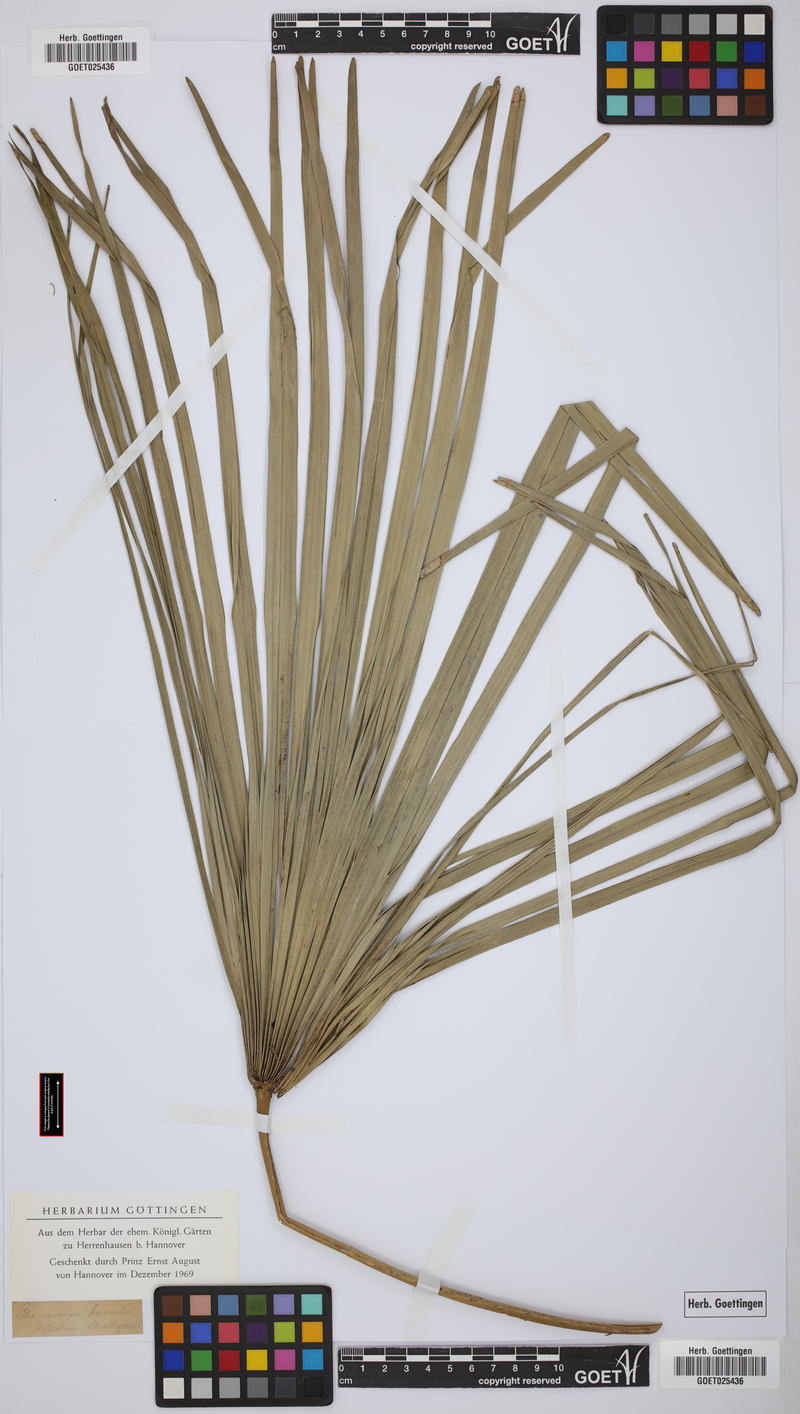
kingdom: Plantae
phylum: Tracheophyta
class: Liliopsida
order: Arecales
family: Arecaceae
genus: Chamaerops
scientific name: Chamaerops humilis
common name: Dwarf fan palm
